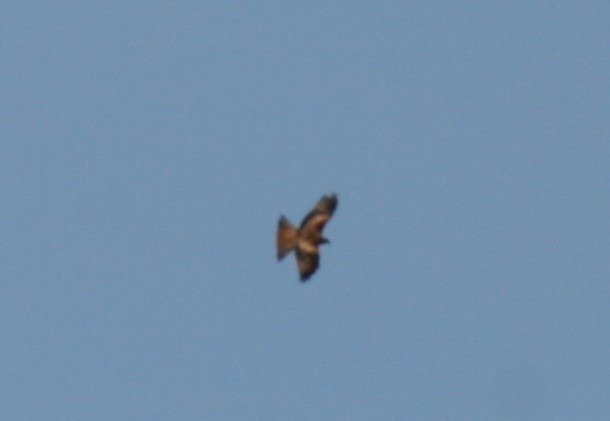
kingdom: Animalia
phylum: Chordata
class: Aves
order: Accipitriformes
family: Accipitridae
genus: Milvus
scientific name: Milvus milvus
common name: Rød glente
